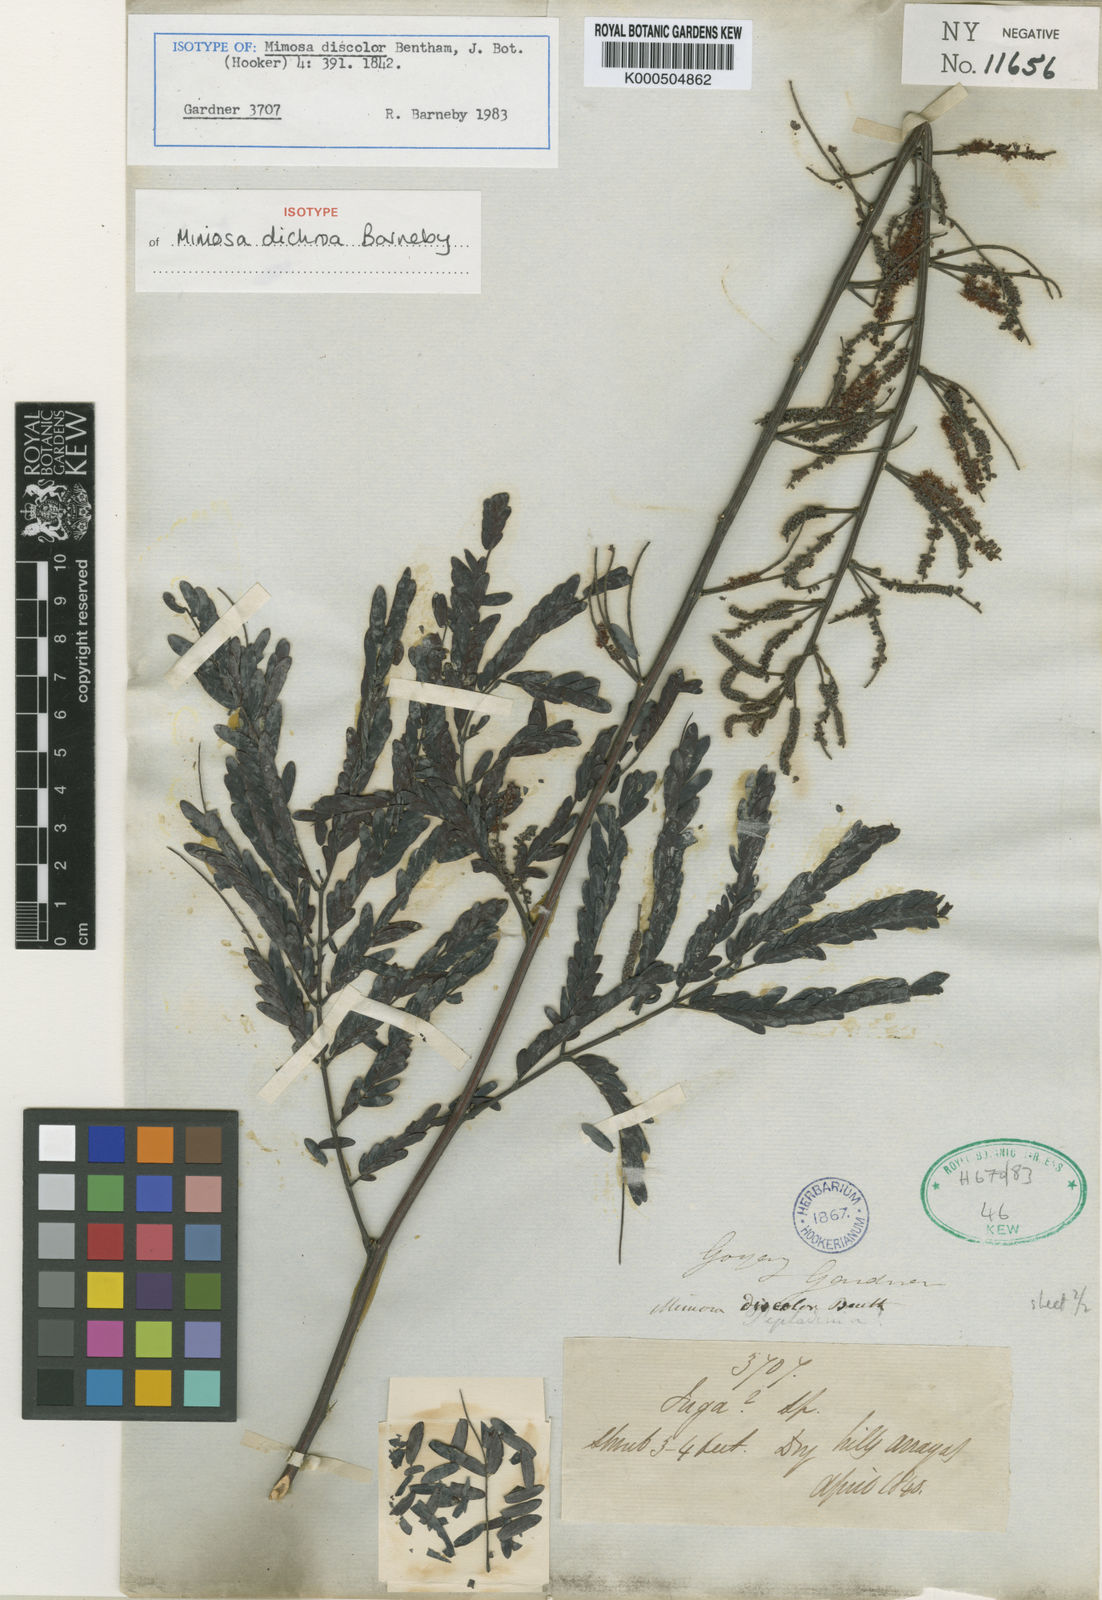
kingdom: Plantae
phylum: Tracheophyta
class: Magnoliopsida
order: Fabales
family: Fabaceae
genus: Mimosa
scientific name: Mimosa
